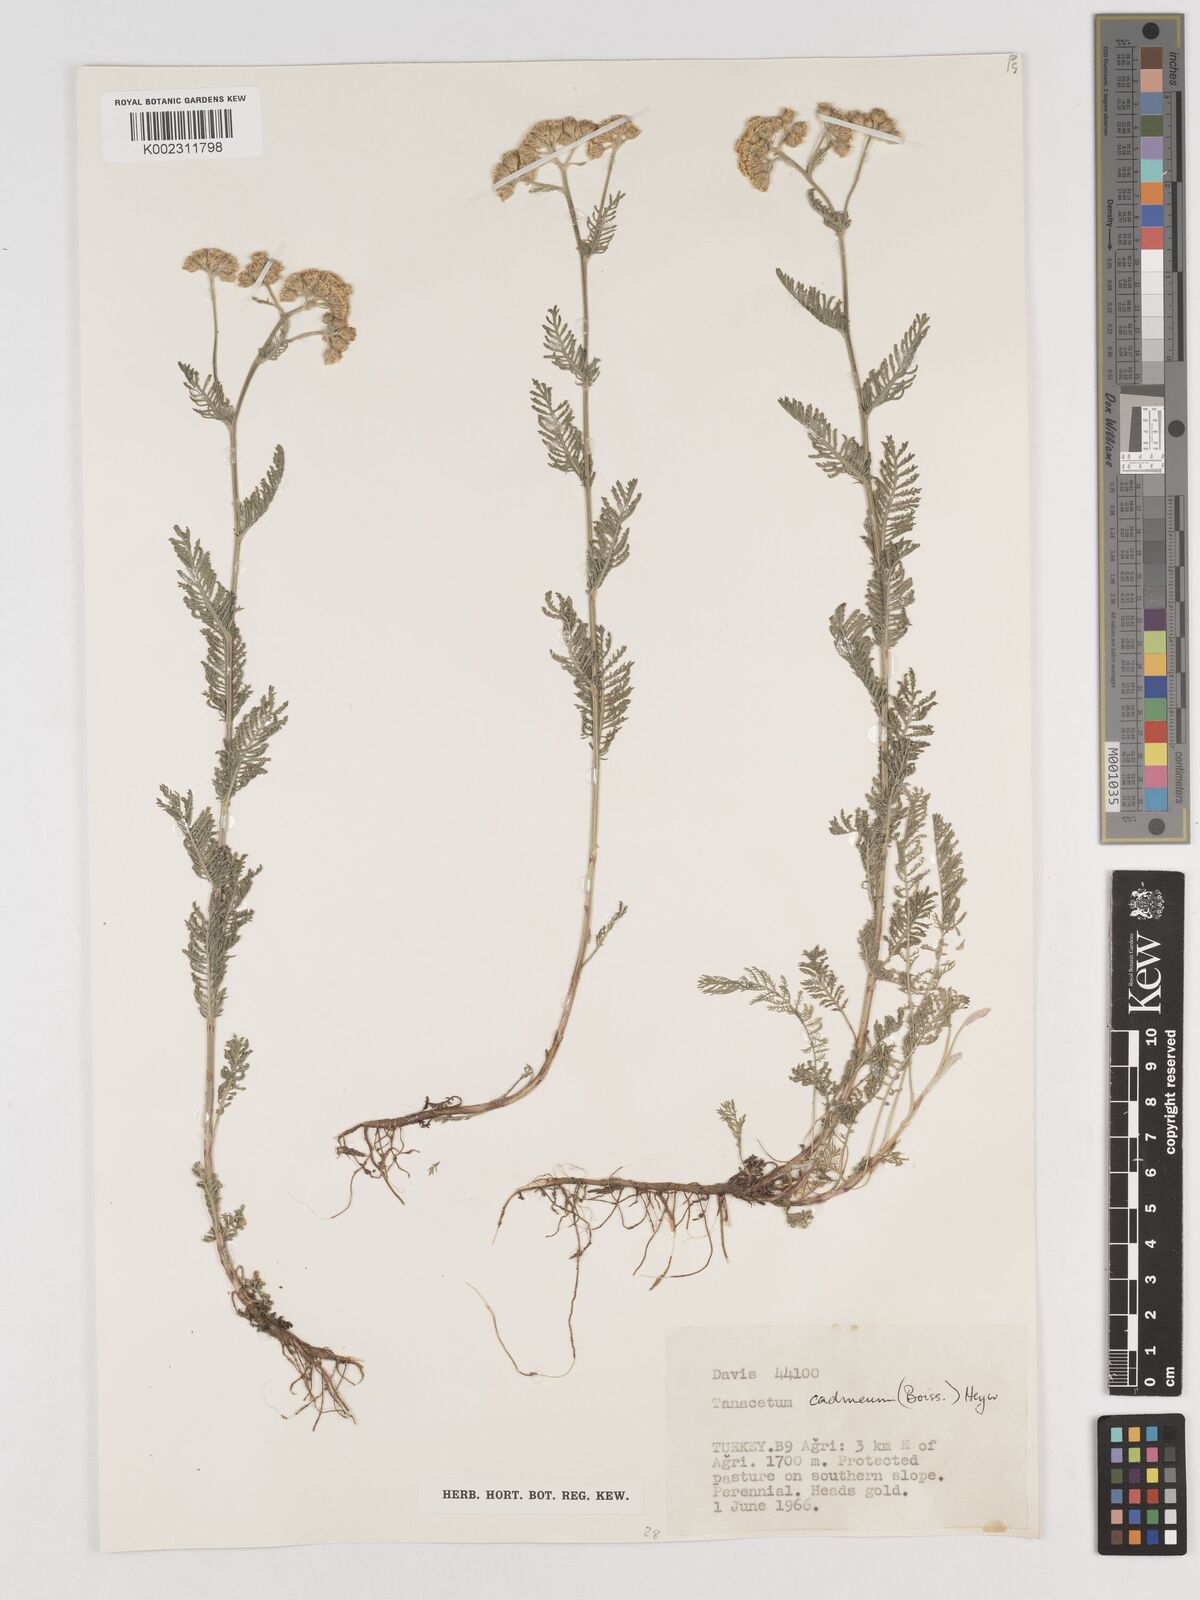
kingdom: Plantae
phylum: Tracheophyta
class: Magnoliopsida
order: Asterales
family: Asteraceae
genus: Tanacetum
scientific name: Tanacetum cadmeum
